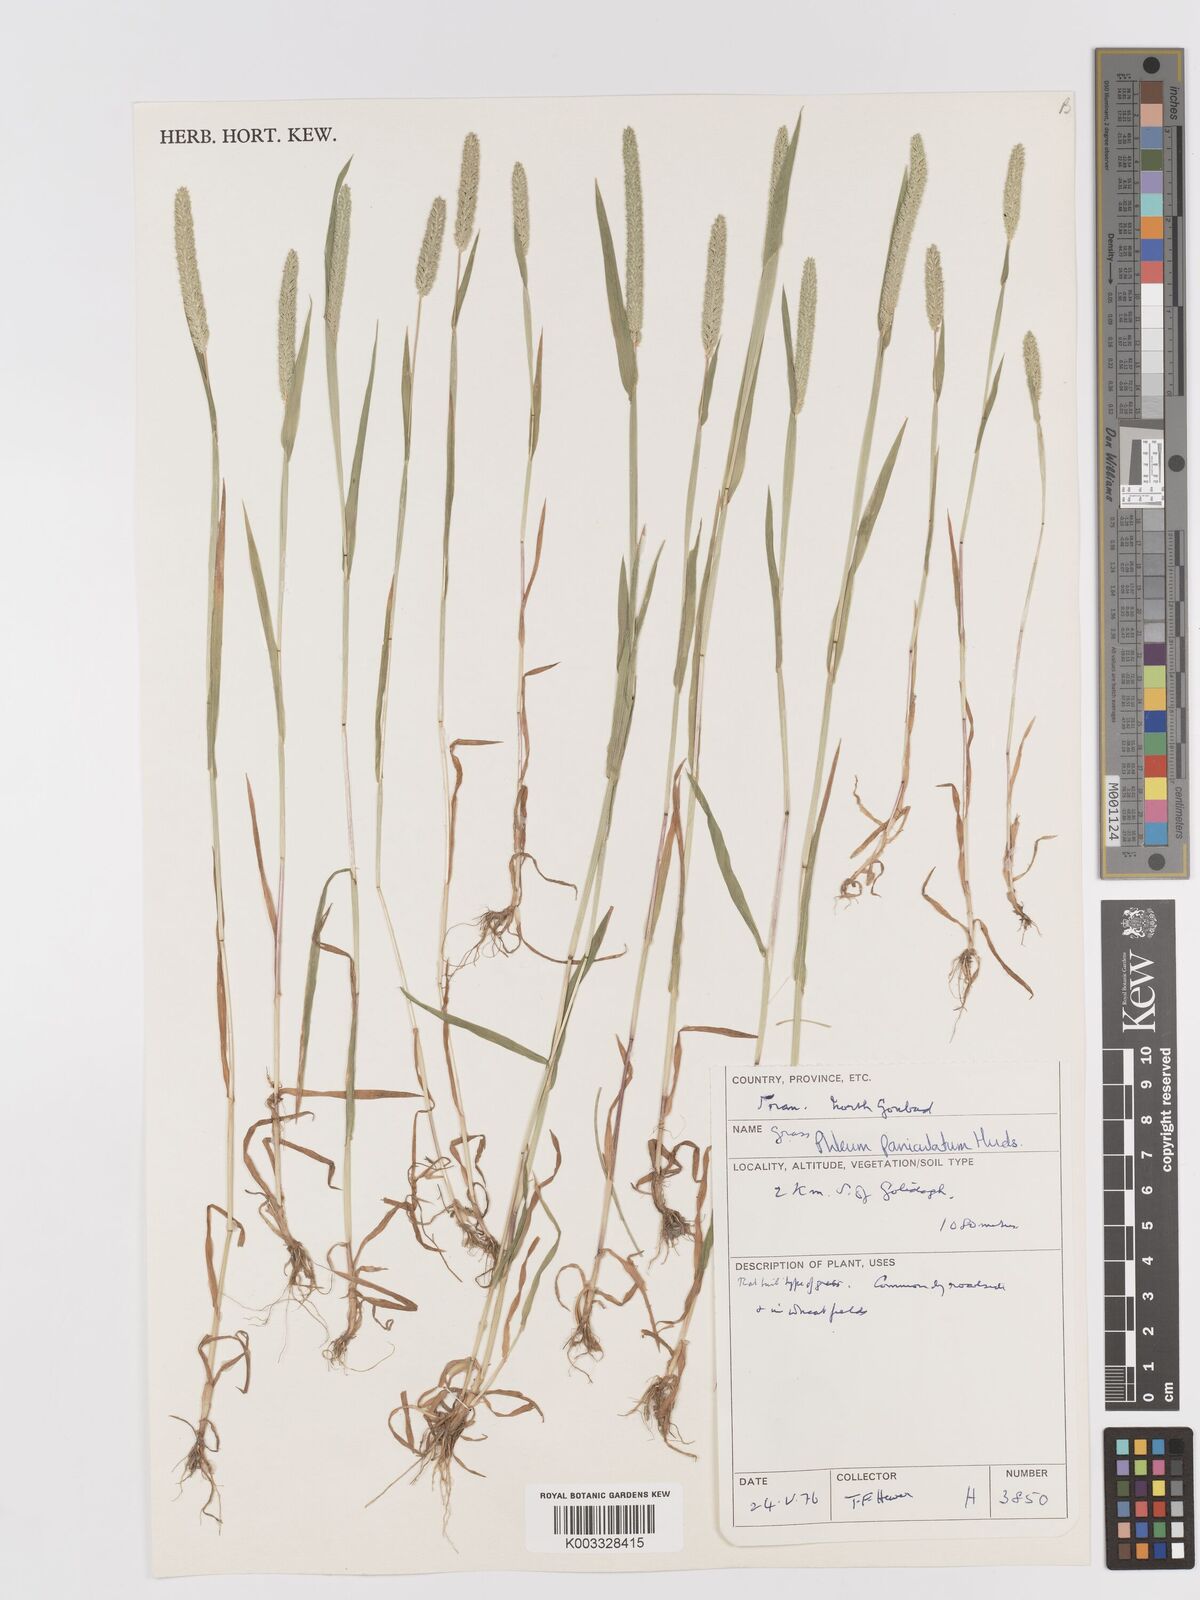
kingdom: Plantae
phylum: Tracheophyta
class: Liliopsida
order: Poales
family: Poaceae
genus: Phleum
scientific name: Phleum paniculatum
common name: British timothy
